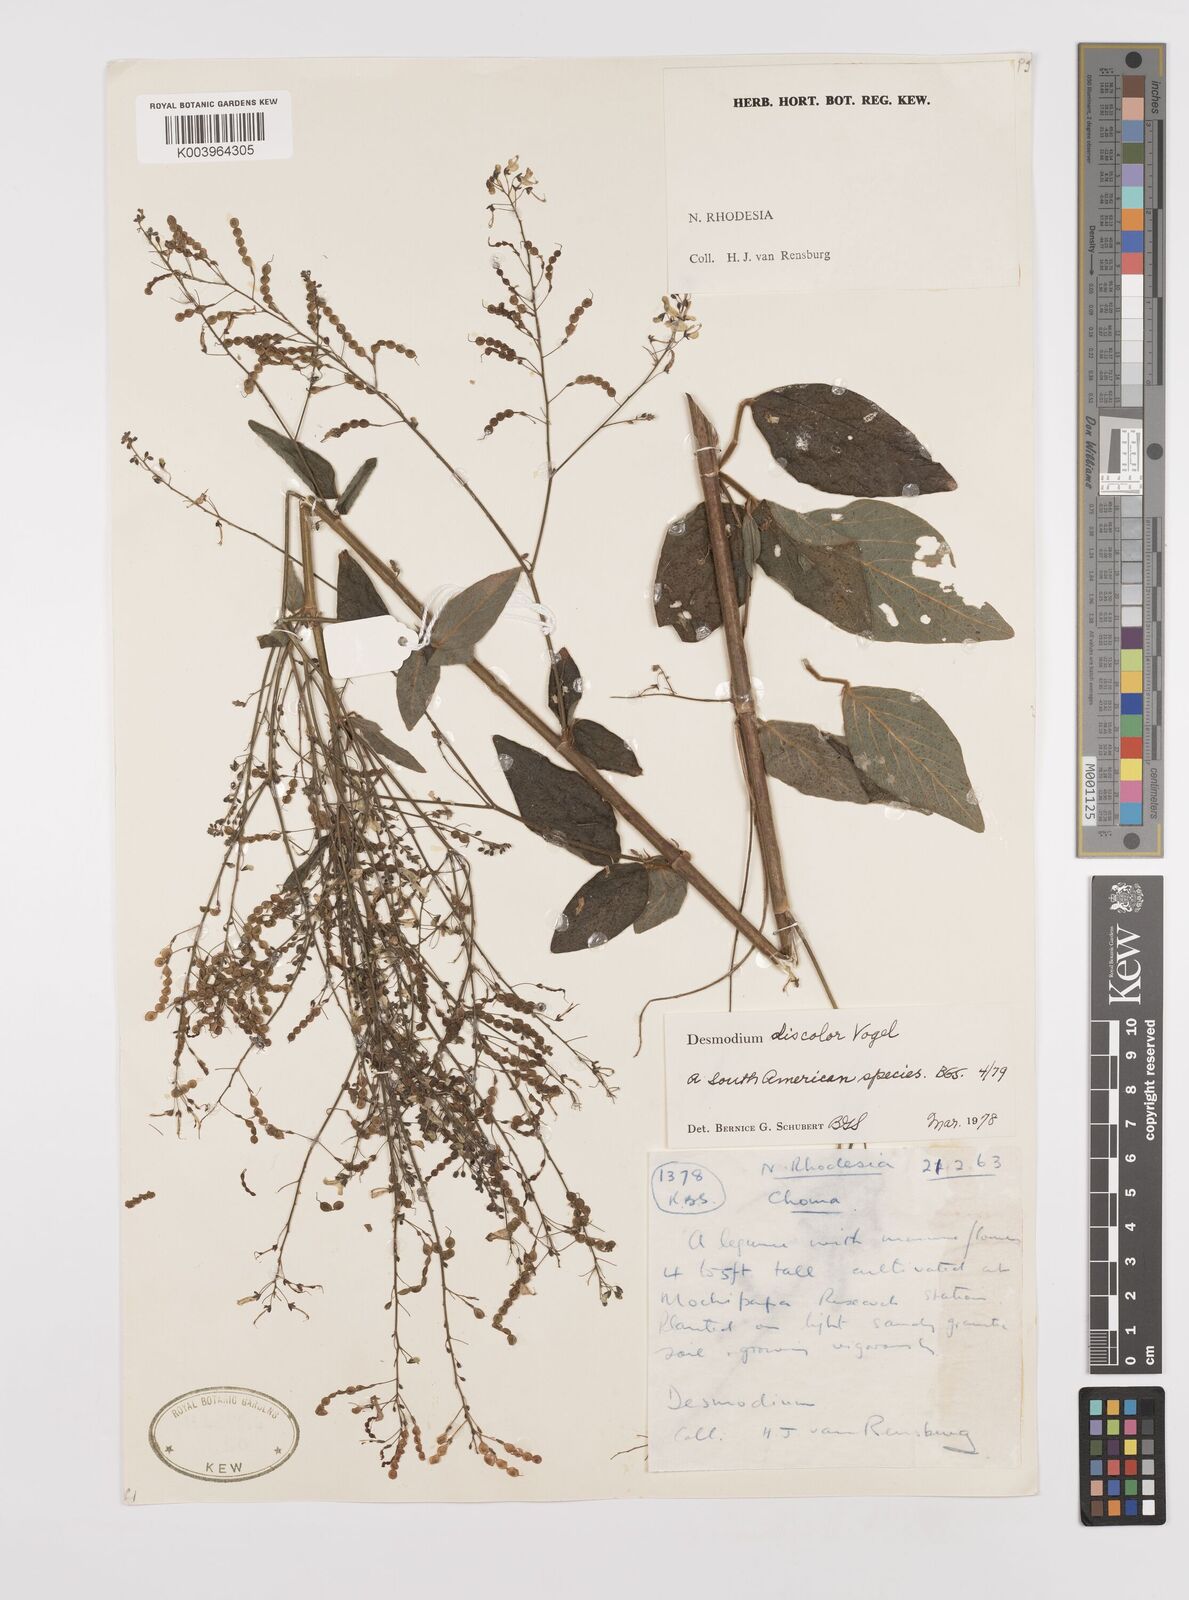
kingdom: Plantae
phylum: Tracheophyta
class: Magnoliopsida
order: Fabales
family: Fabaceae
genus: Desmodium
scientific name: Desmodium subsecundum
